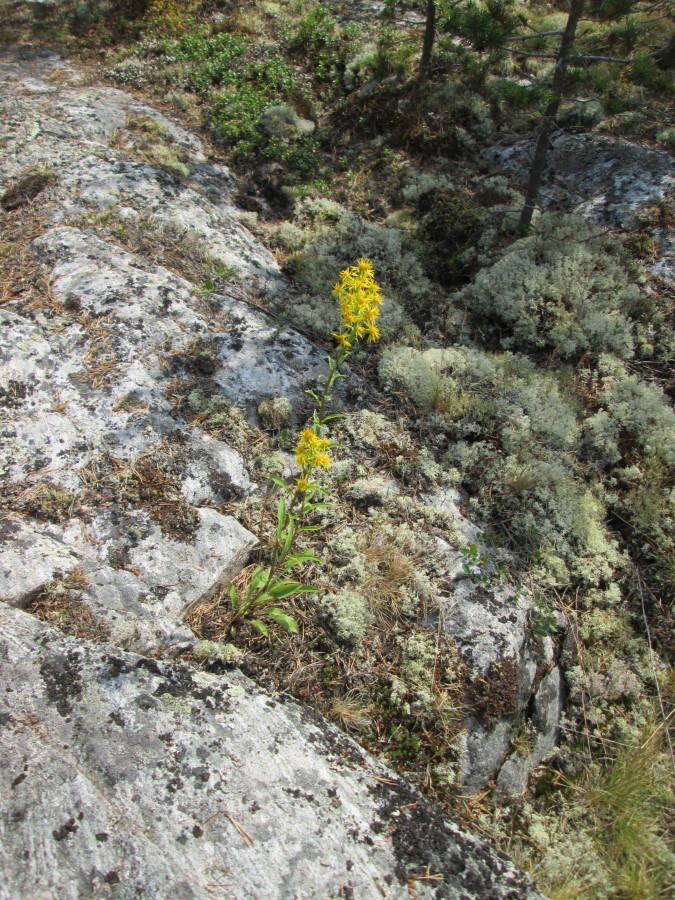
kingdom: Plantae
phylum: Tracheophyta
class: Magnoliopsida
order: Asterales
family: Asteraceae
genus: Solidago
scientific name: Solidago virgaurea
